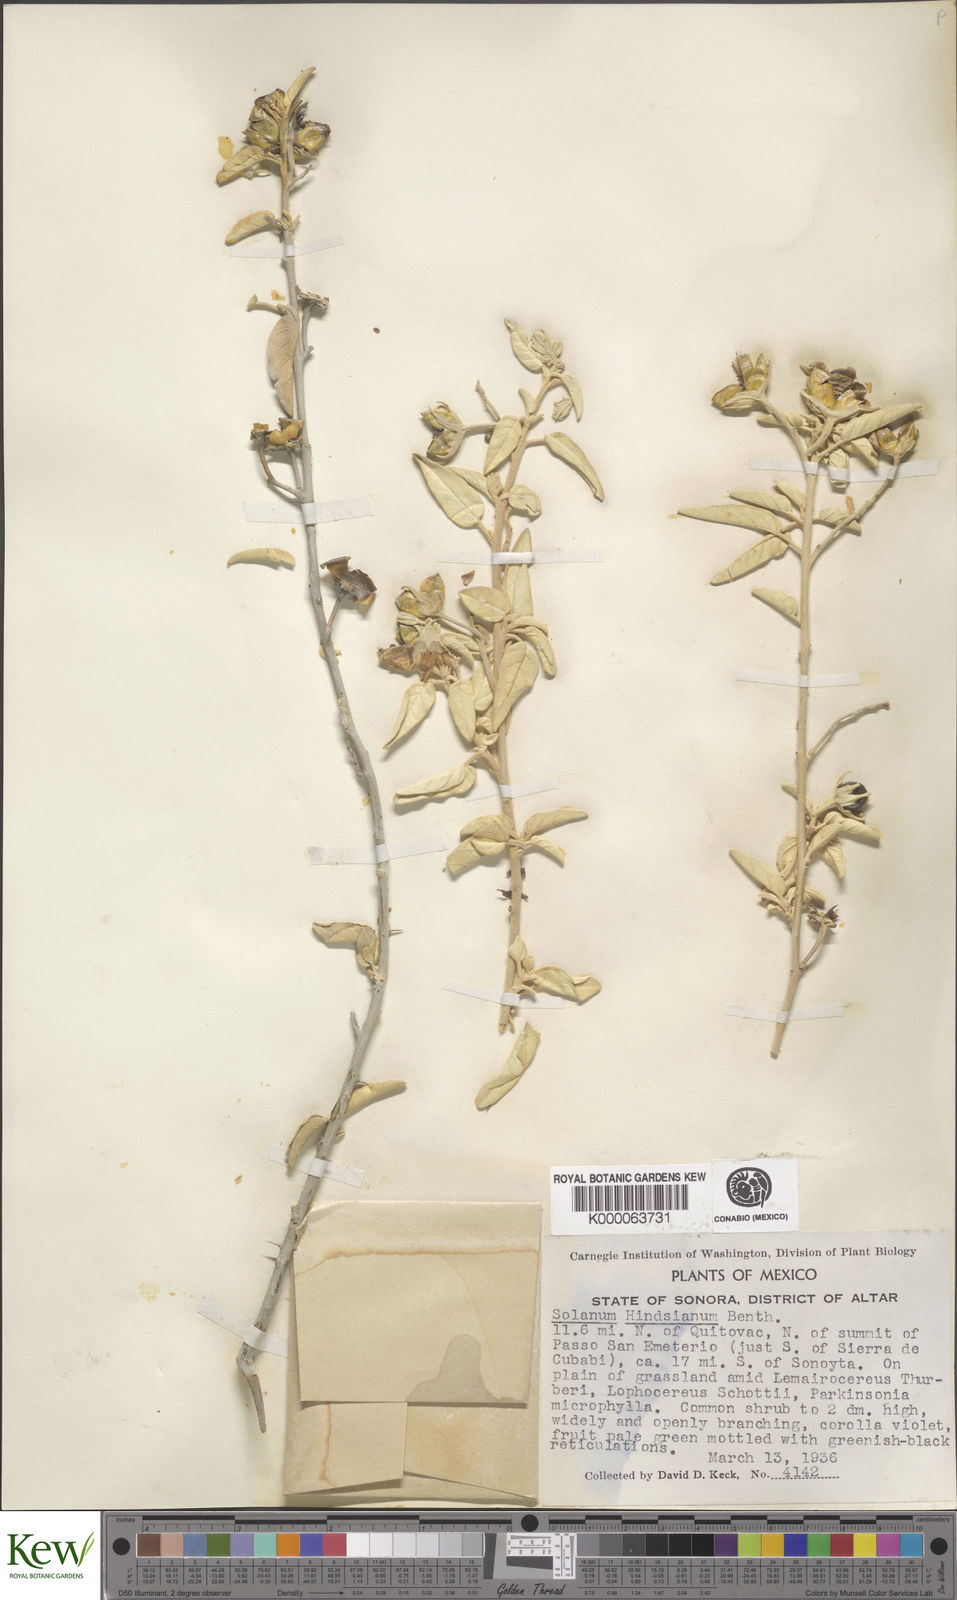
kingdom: Plantae
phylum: Tracheophyta
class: Magnoliopsida
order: Solanales
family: Solanaceae
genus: Solanum
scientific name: Solanum hindsianum
